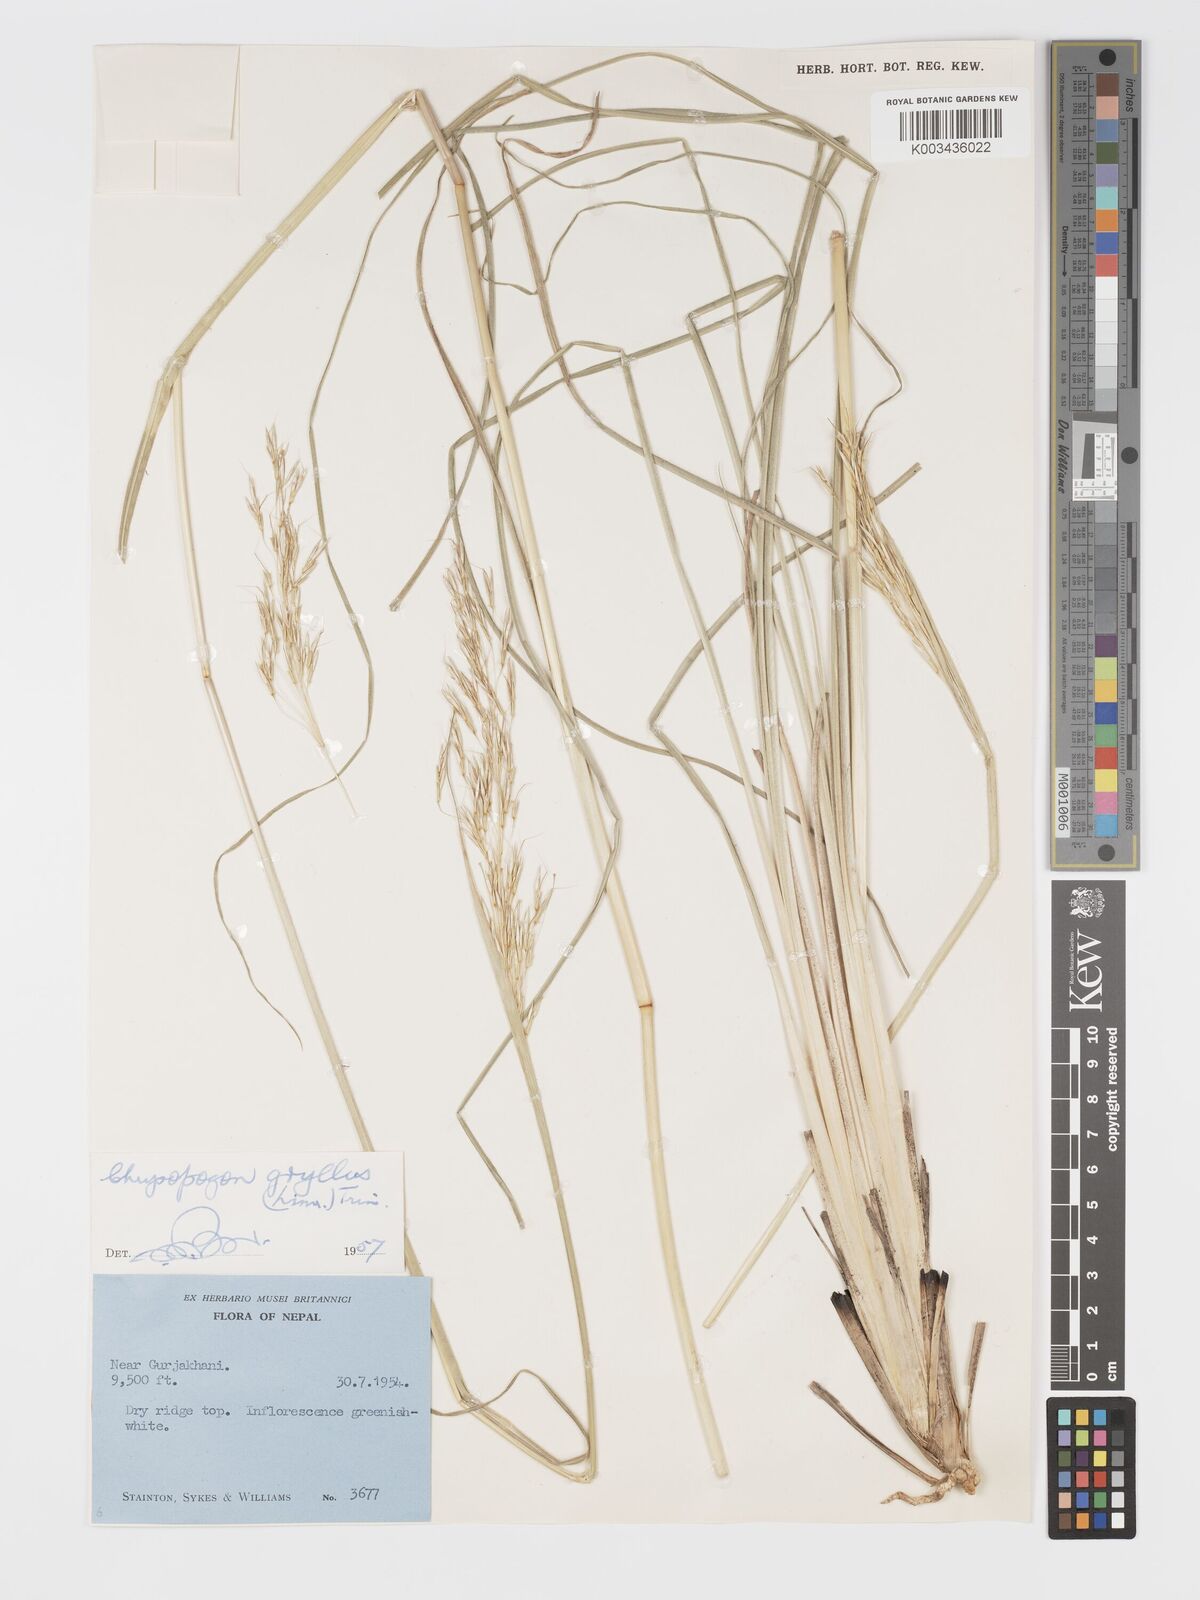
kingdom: Plantae
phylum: Tracheophyta
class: Liliopsida
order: Poales
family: Poaceae
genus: Chrysopogon
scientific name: Chrysopogon gryllus
